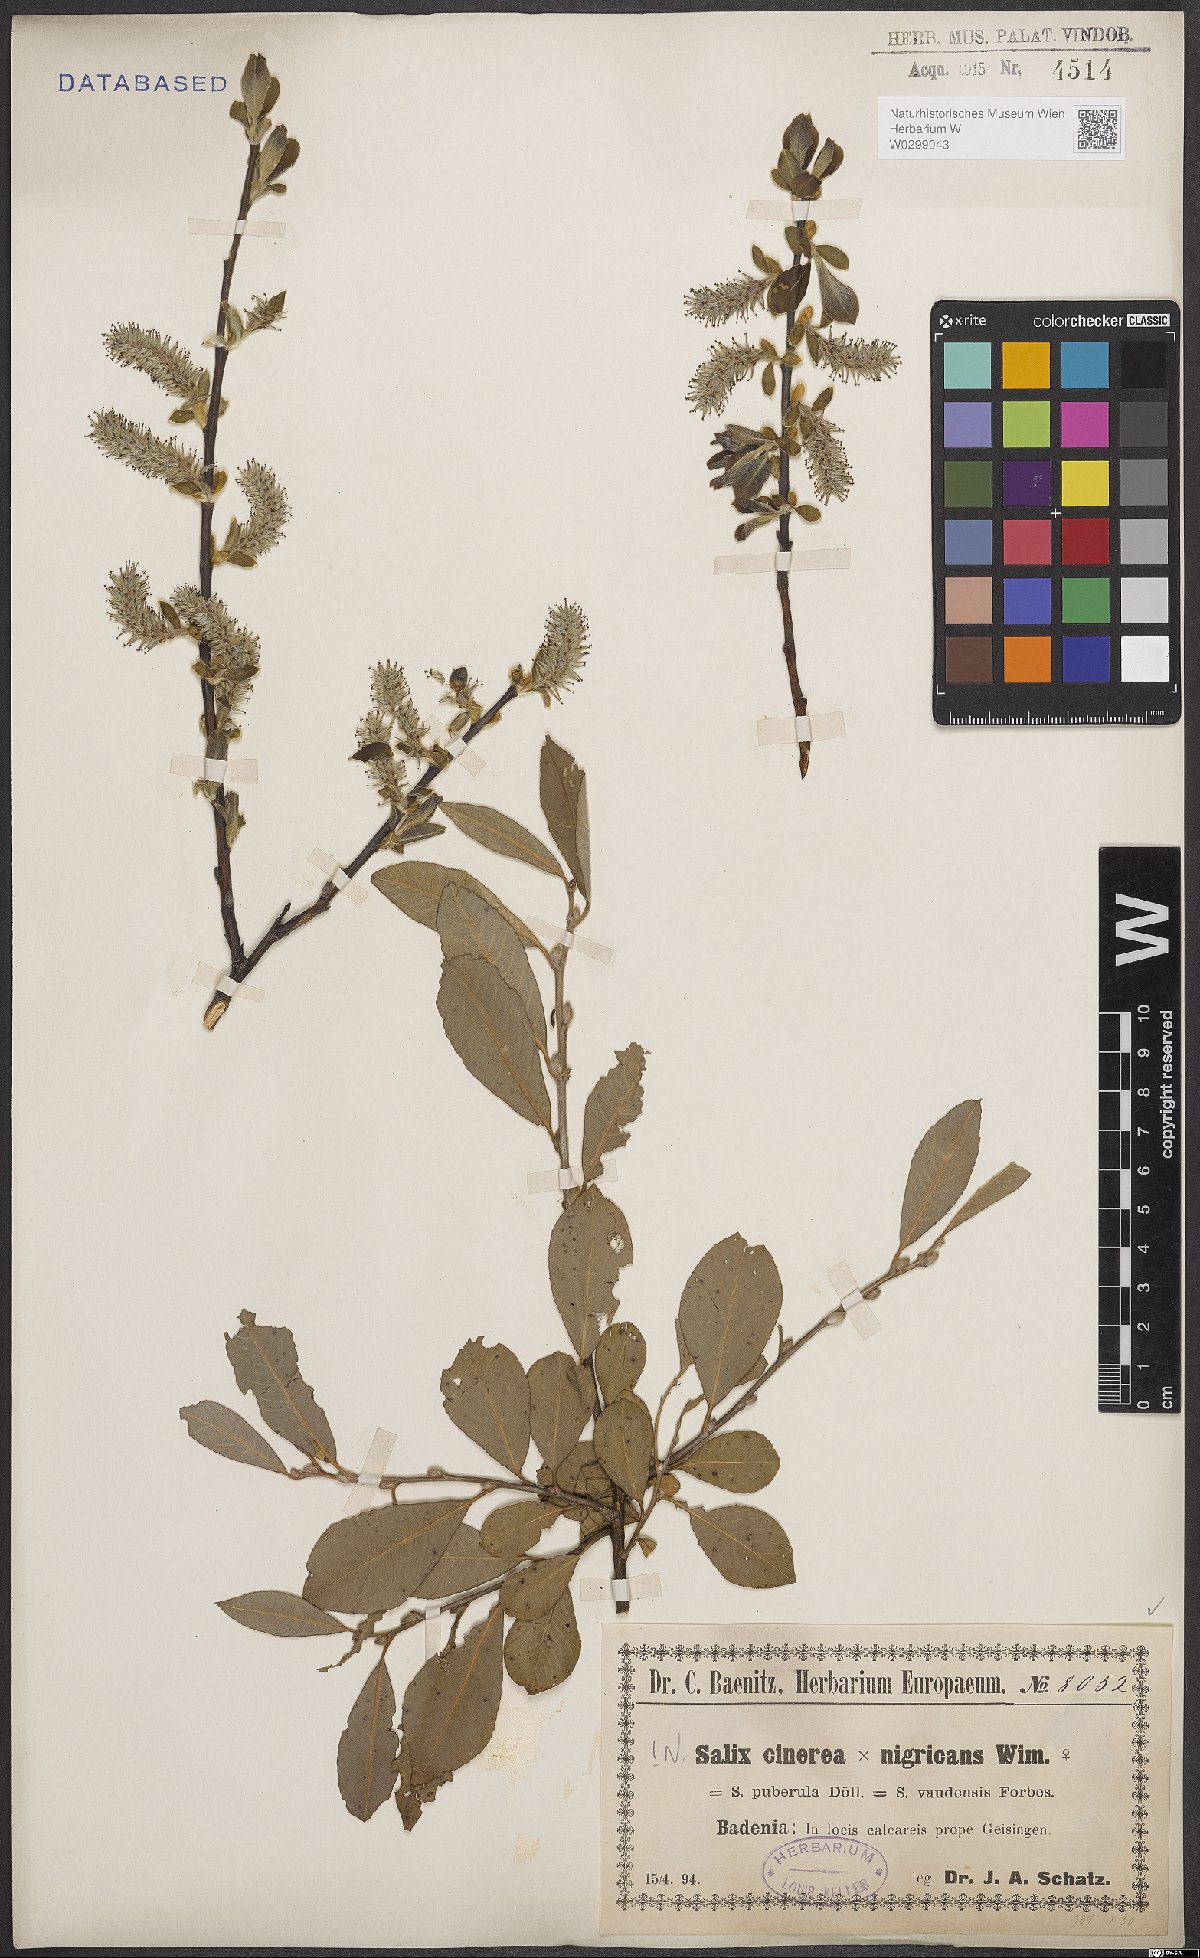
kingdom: Plantae
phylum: Tracheophyta
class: Magnoliopsida
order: Malpighiales
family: Salicaceae
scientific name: Salicaceae
